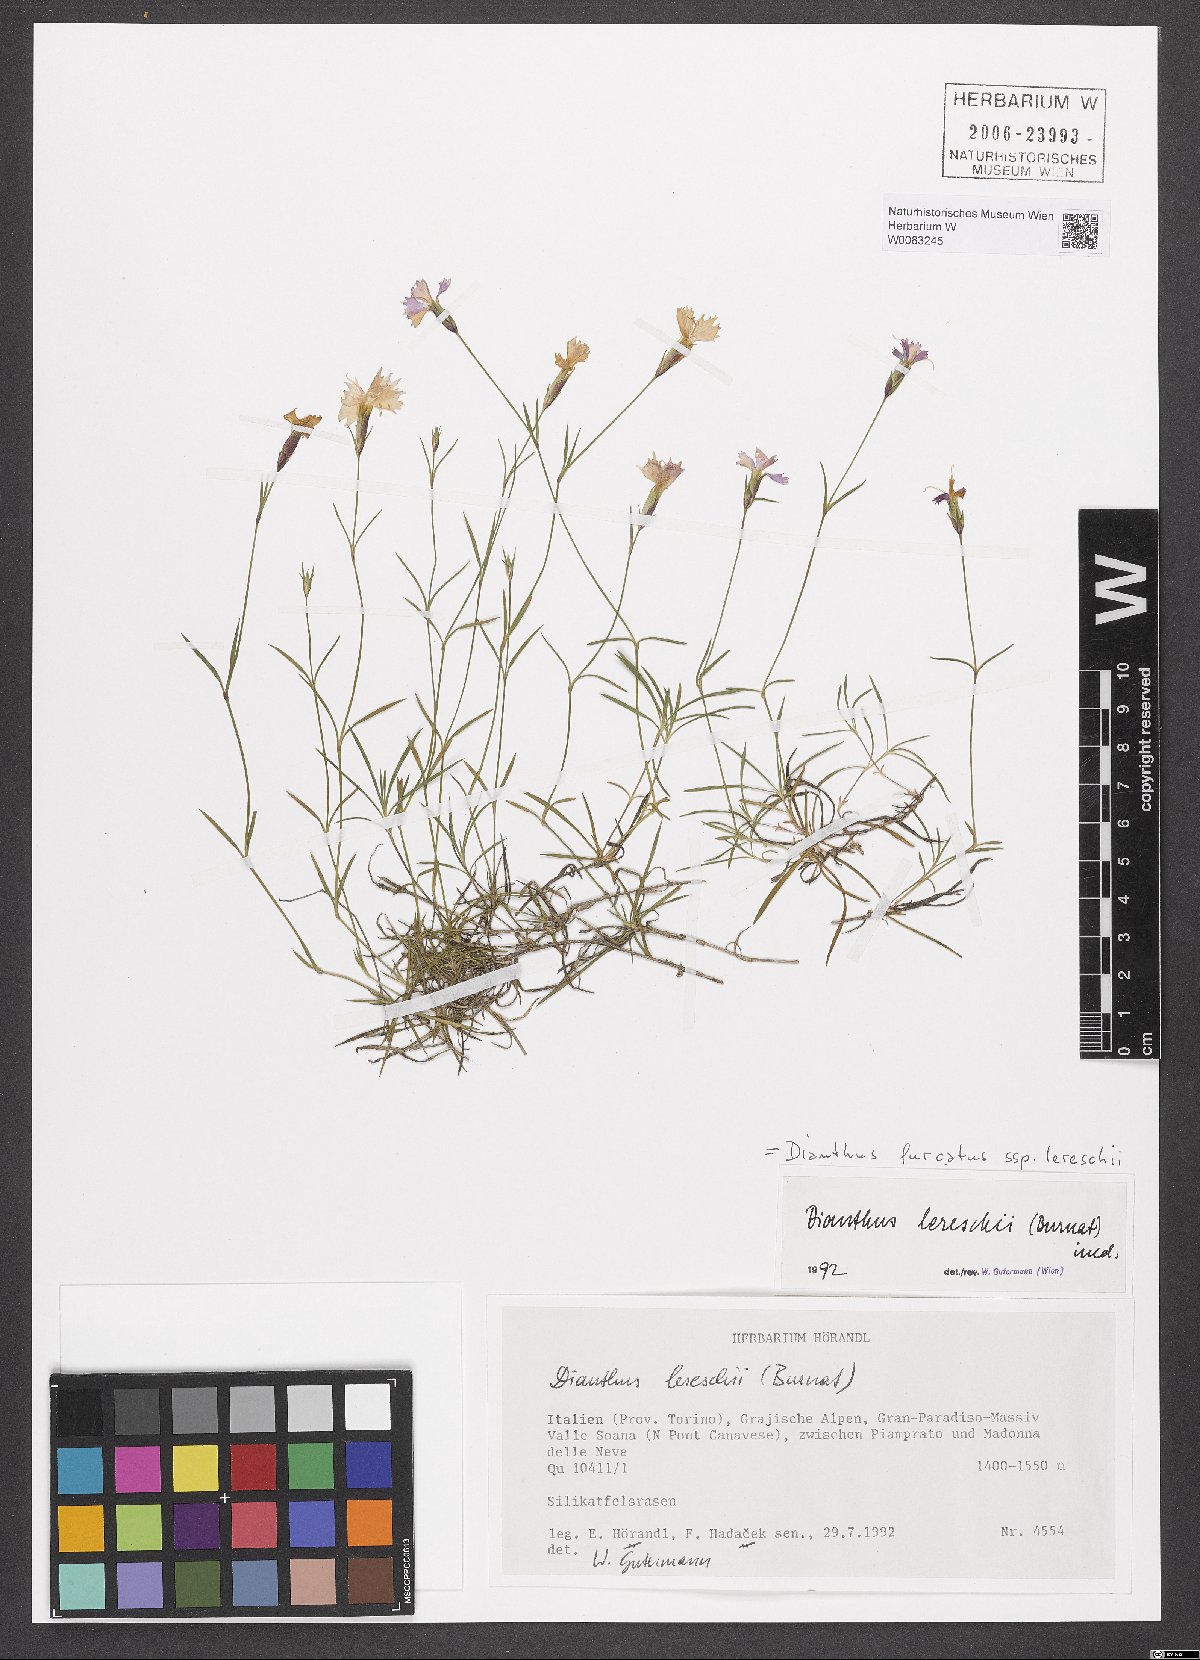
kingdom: Plantae
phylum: Tracheophyta
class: Magnoliopsida
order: Caryophyllales
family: Caryophyllaceae
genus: Dianthus
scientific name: Dianthus furcatus
